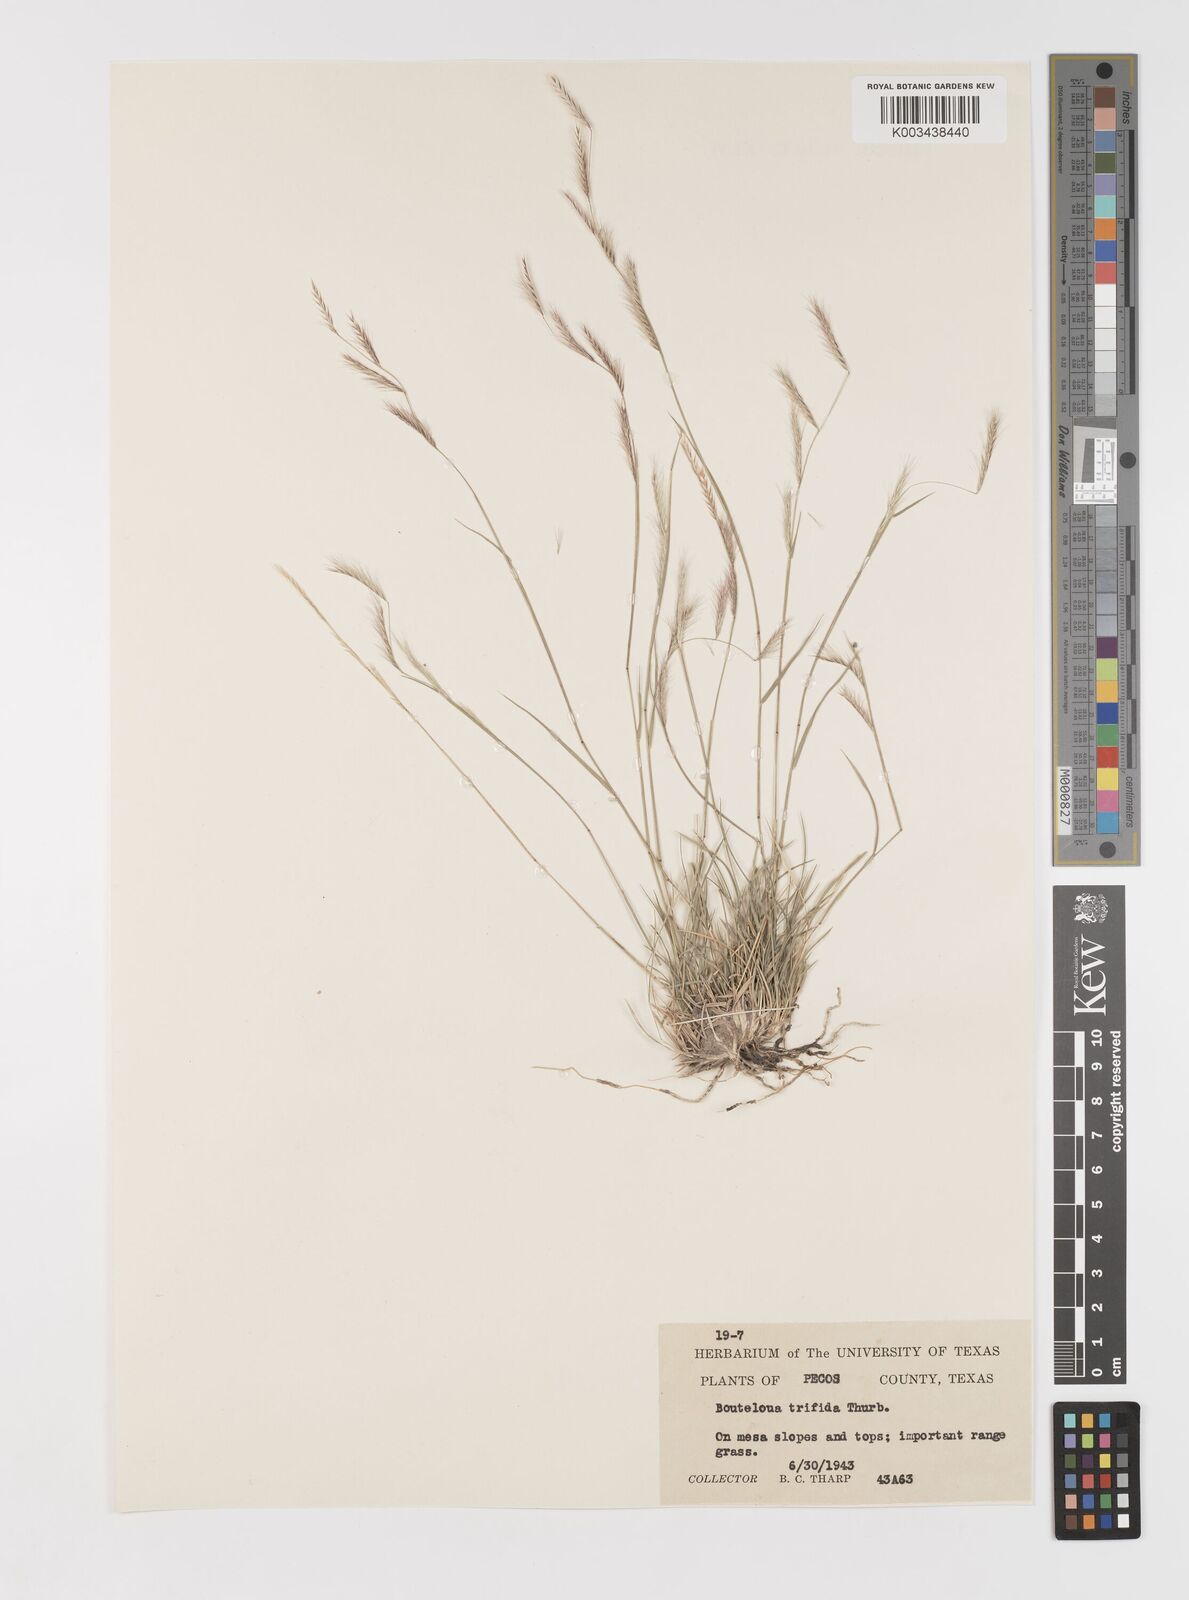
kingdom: Plantae
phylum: Tracheophyta
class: Liliopsida
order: Poales
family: Poaceae
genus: Bouteloua
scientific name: Bouteloua trifida
